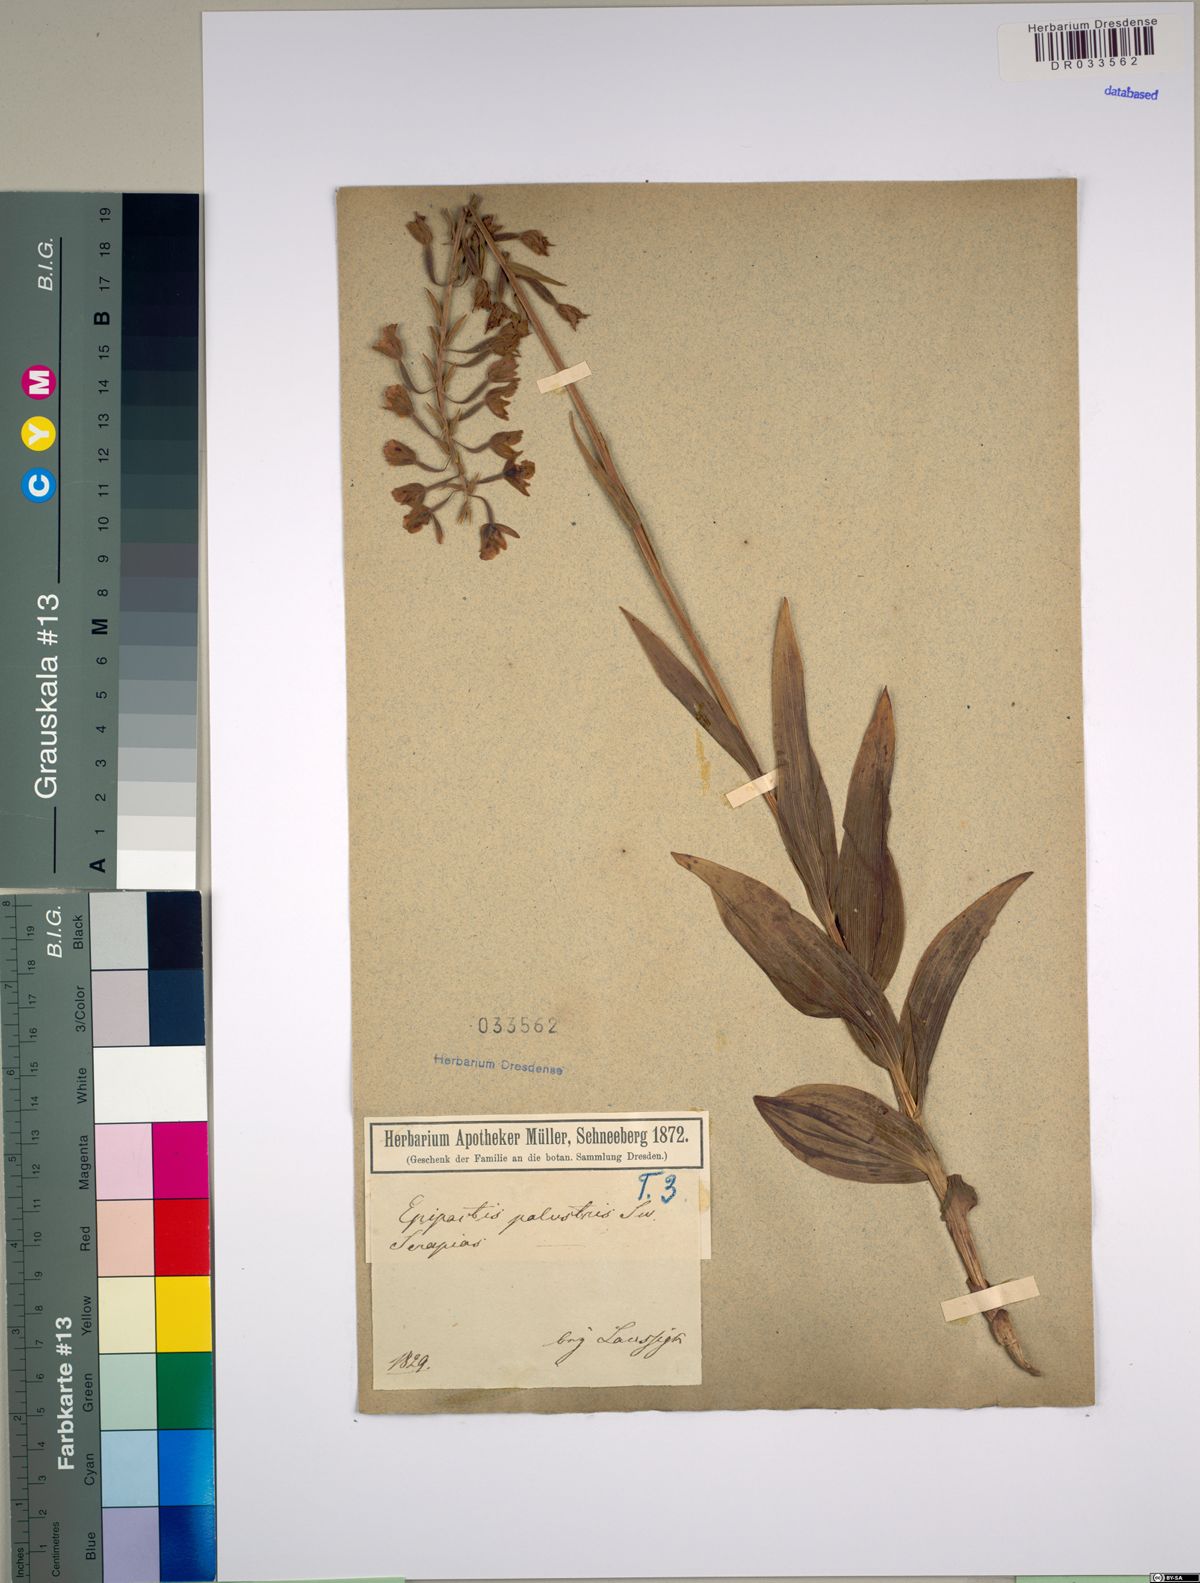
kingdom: Plantae
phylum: Tracheophyta
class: Liliopsida
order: Asparagales
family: Orchidaceae
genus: Epipactis
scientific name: Epipactis palustris
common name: Marsh helleborine
